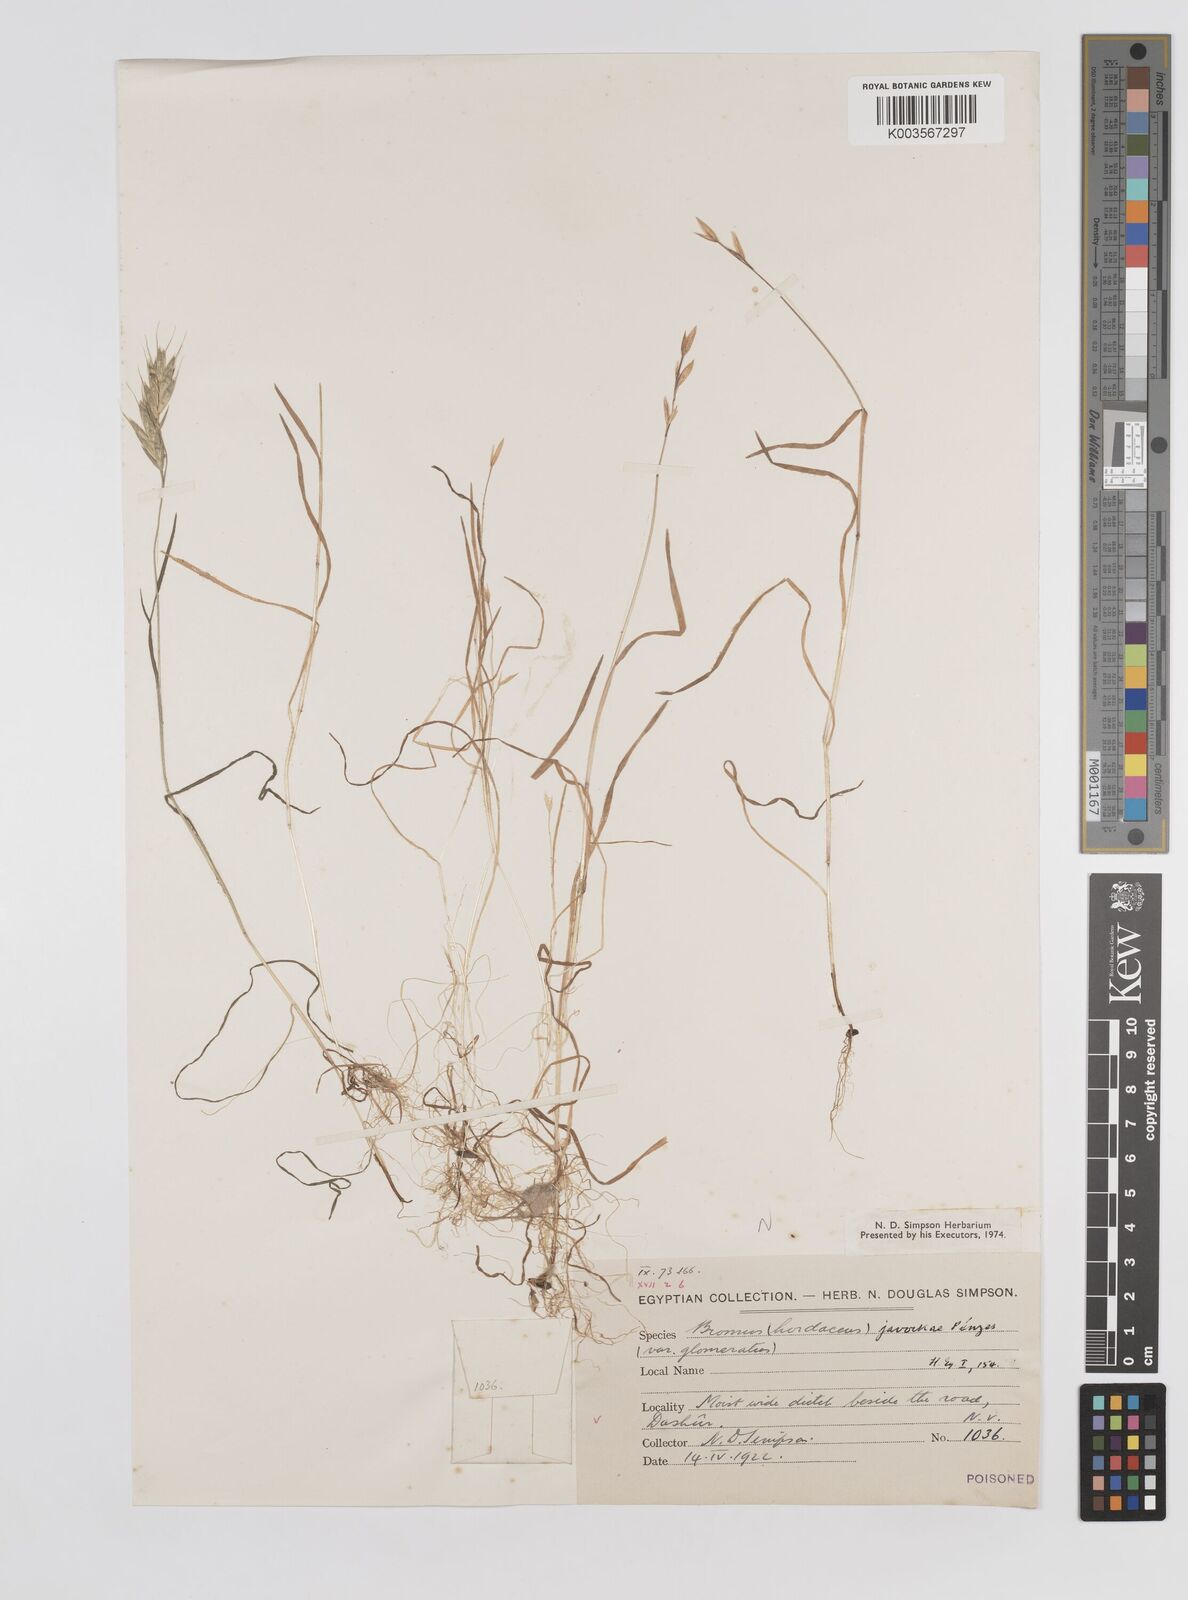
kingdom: Plantae
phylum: Tracheophyta
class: Liliopsida
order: Poales
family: Poaceae
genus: Bromus
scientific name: Bromus hordeaceus
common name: Soft brome
